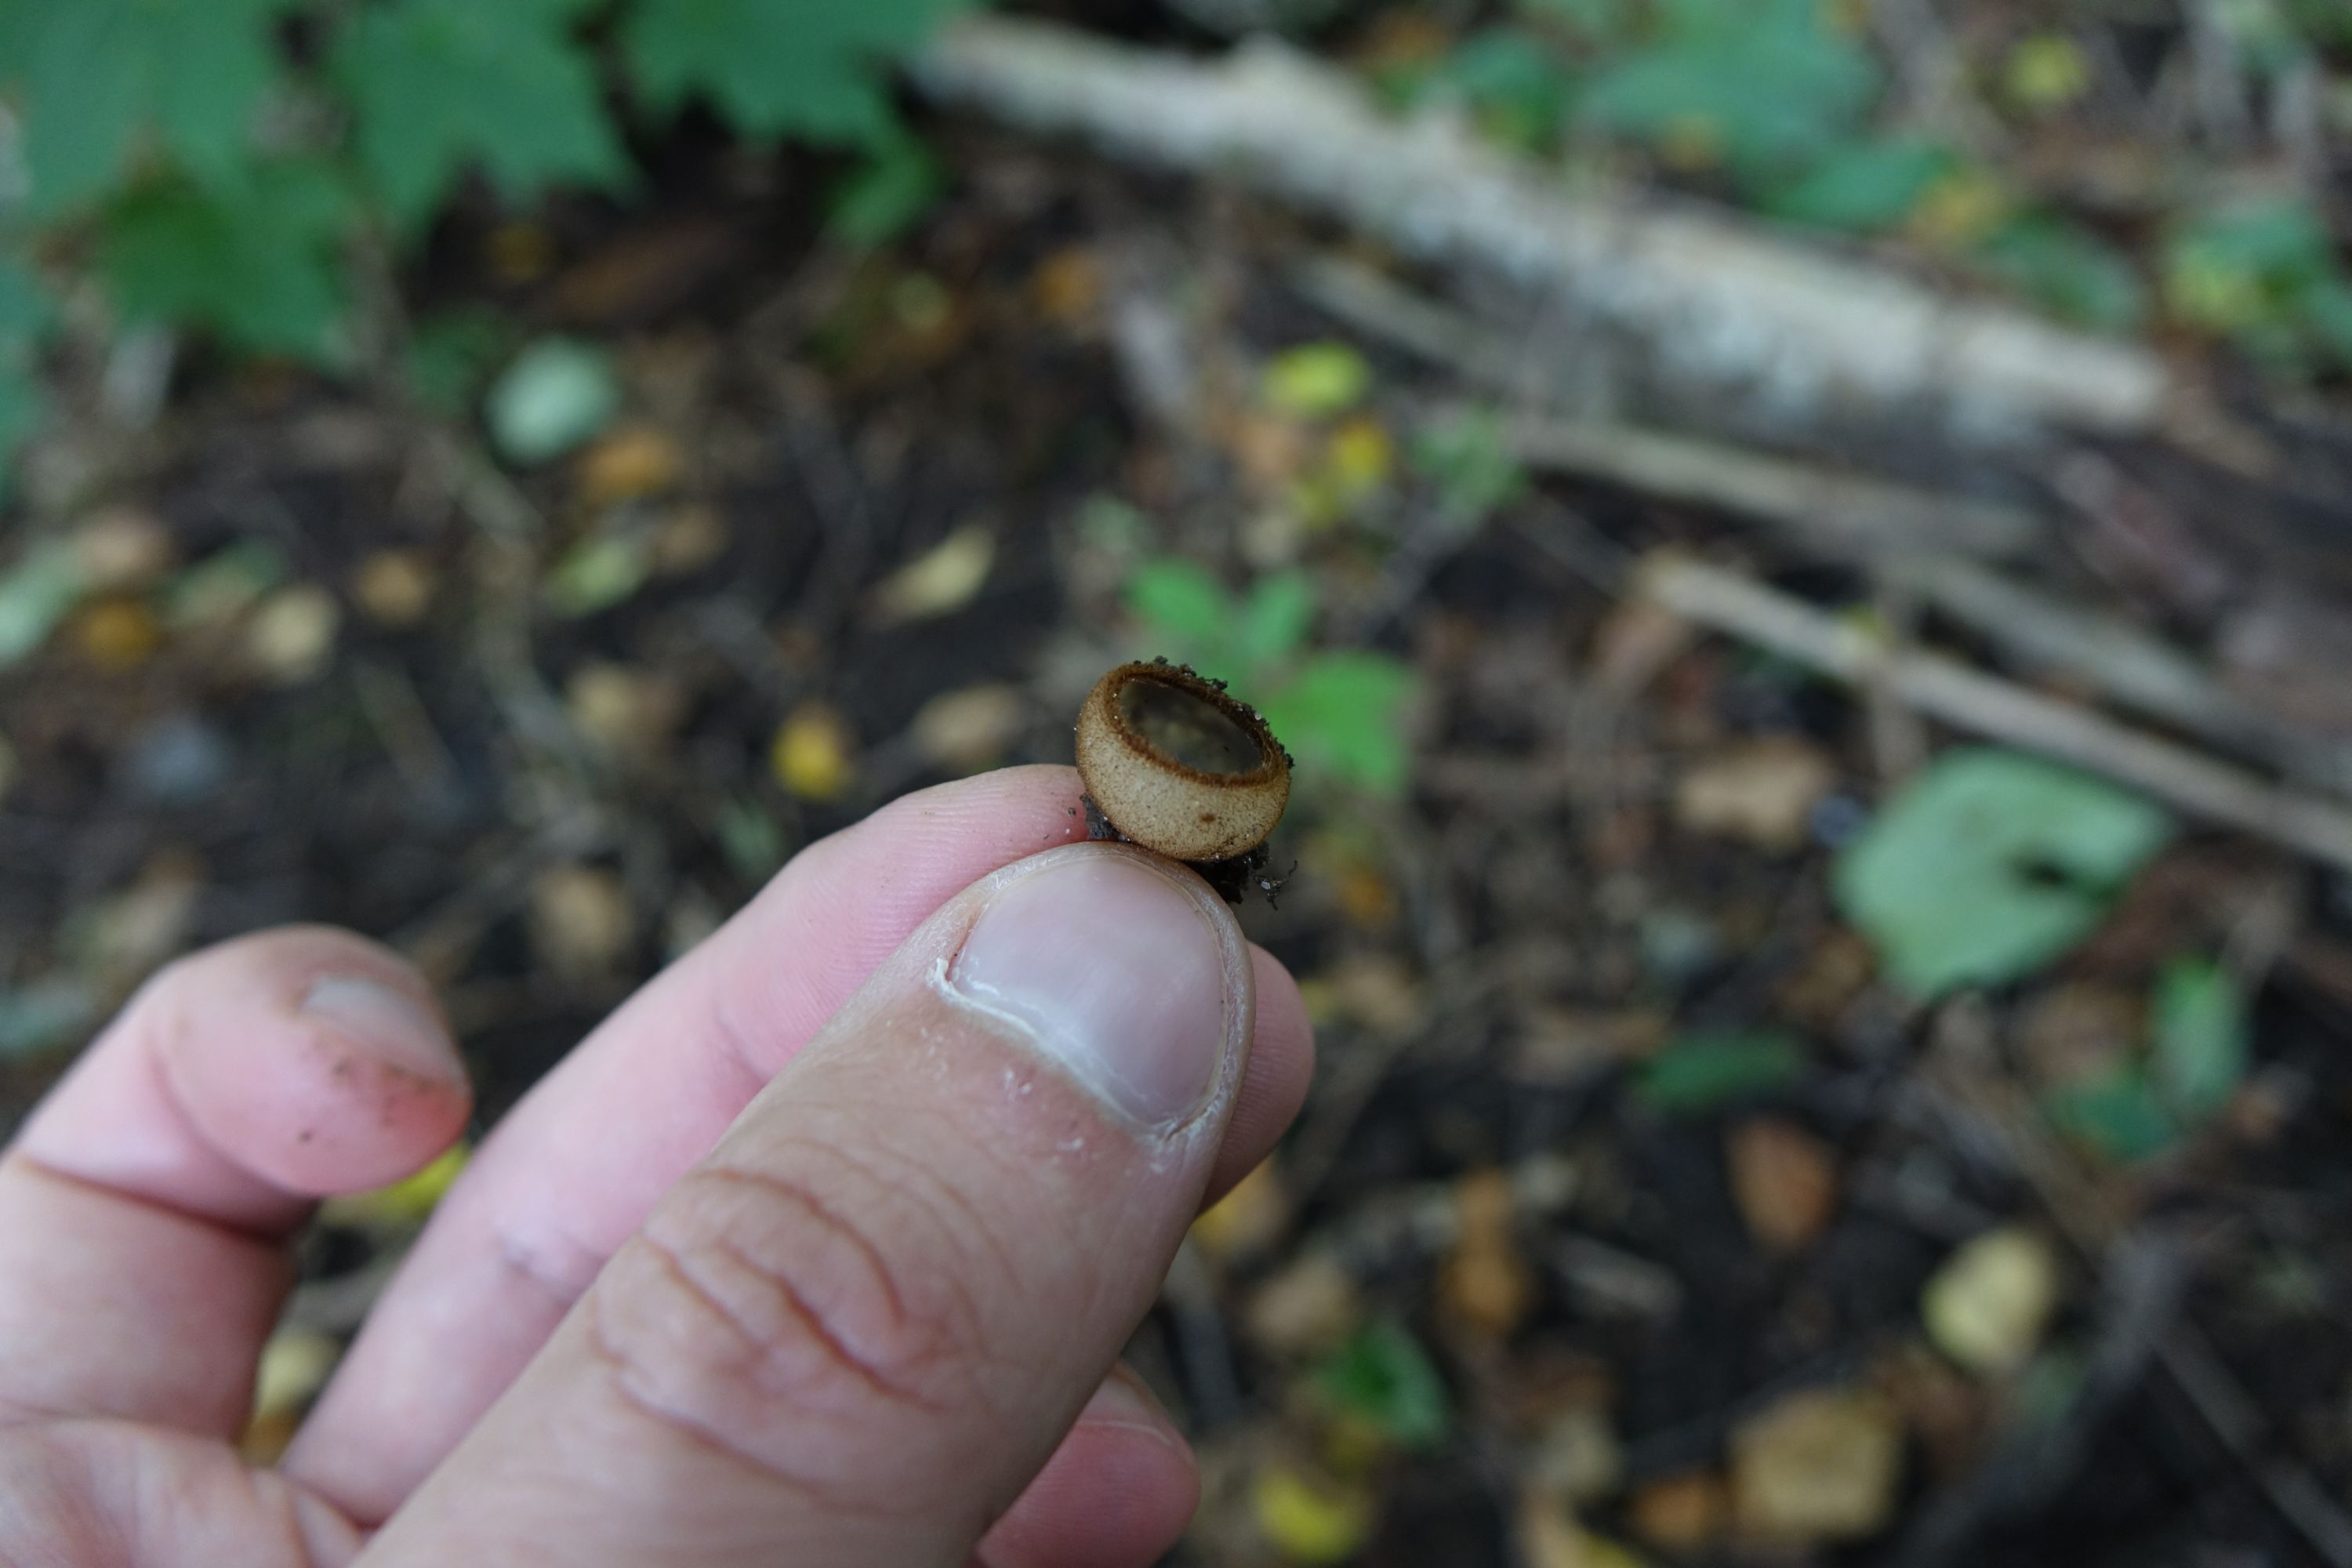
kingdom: Fungi
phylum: Ascomycota
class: Pezizomycetes
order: Pezizales
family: Pyronemataceae
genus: Humaria
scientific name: Humaria hemisphaerica
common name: Glazed cup
